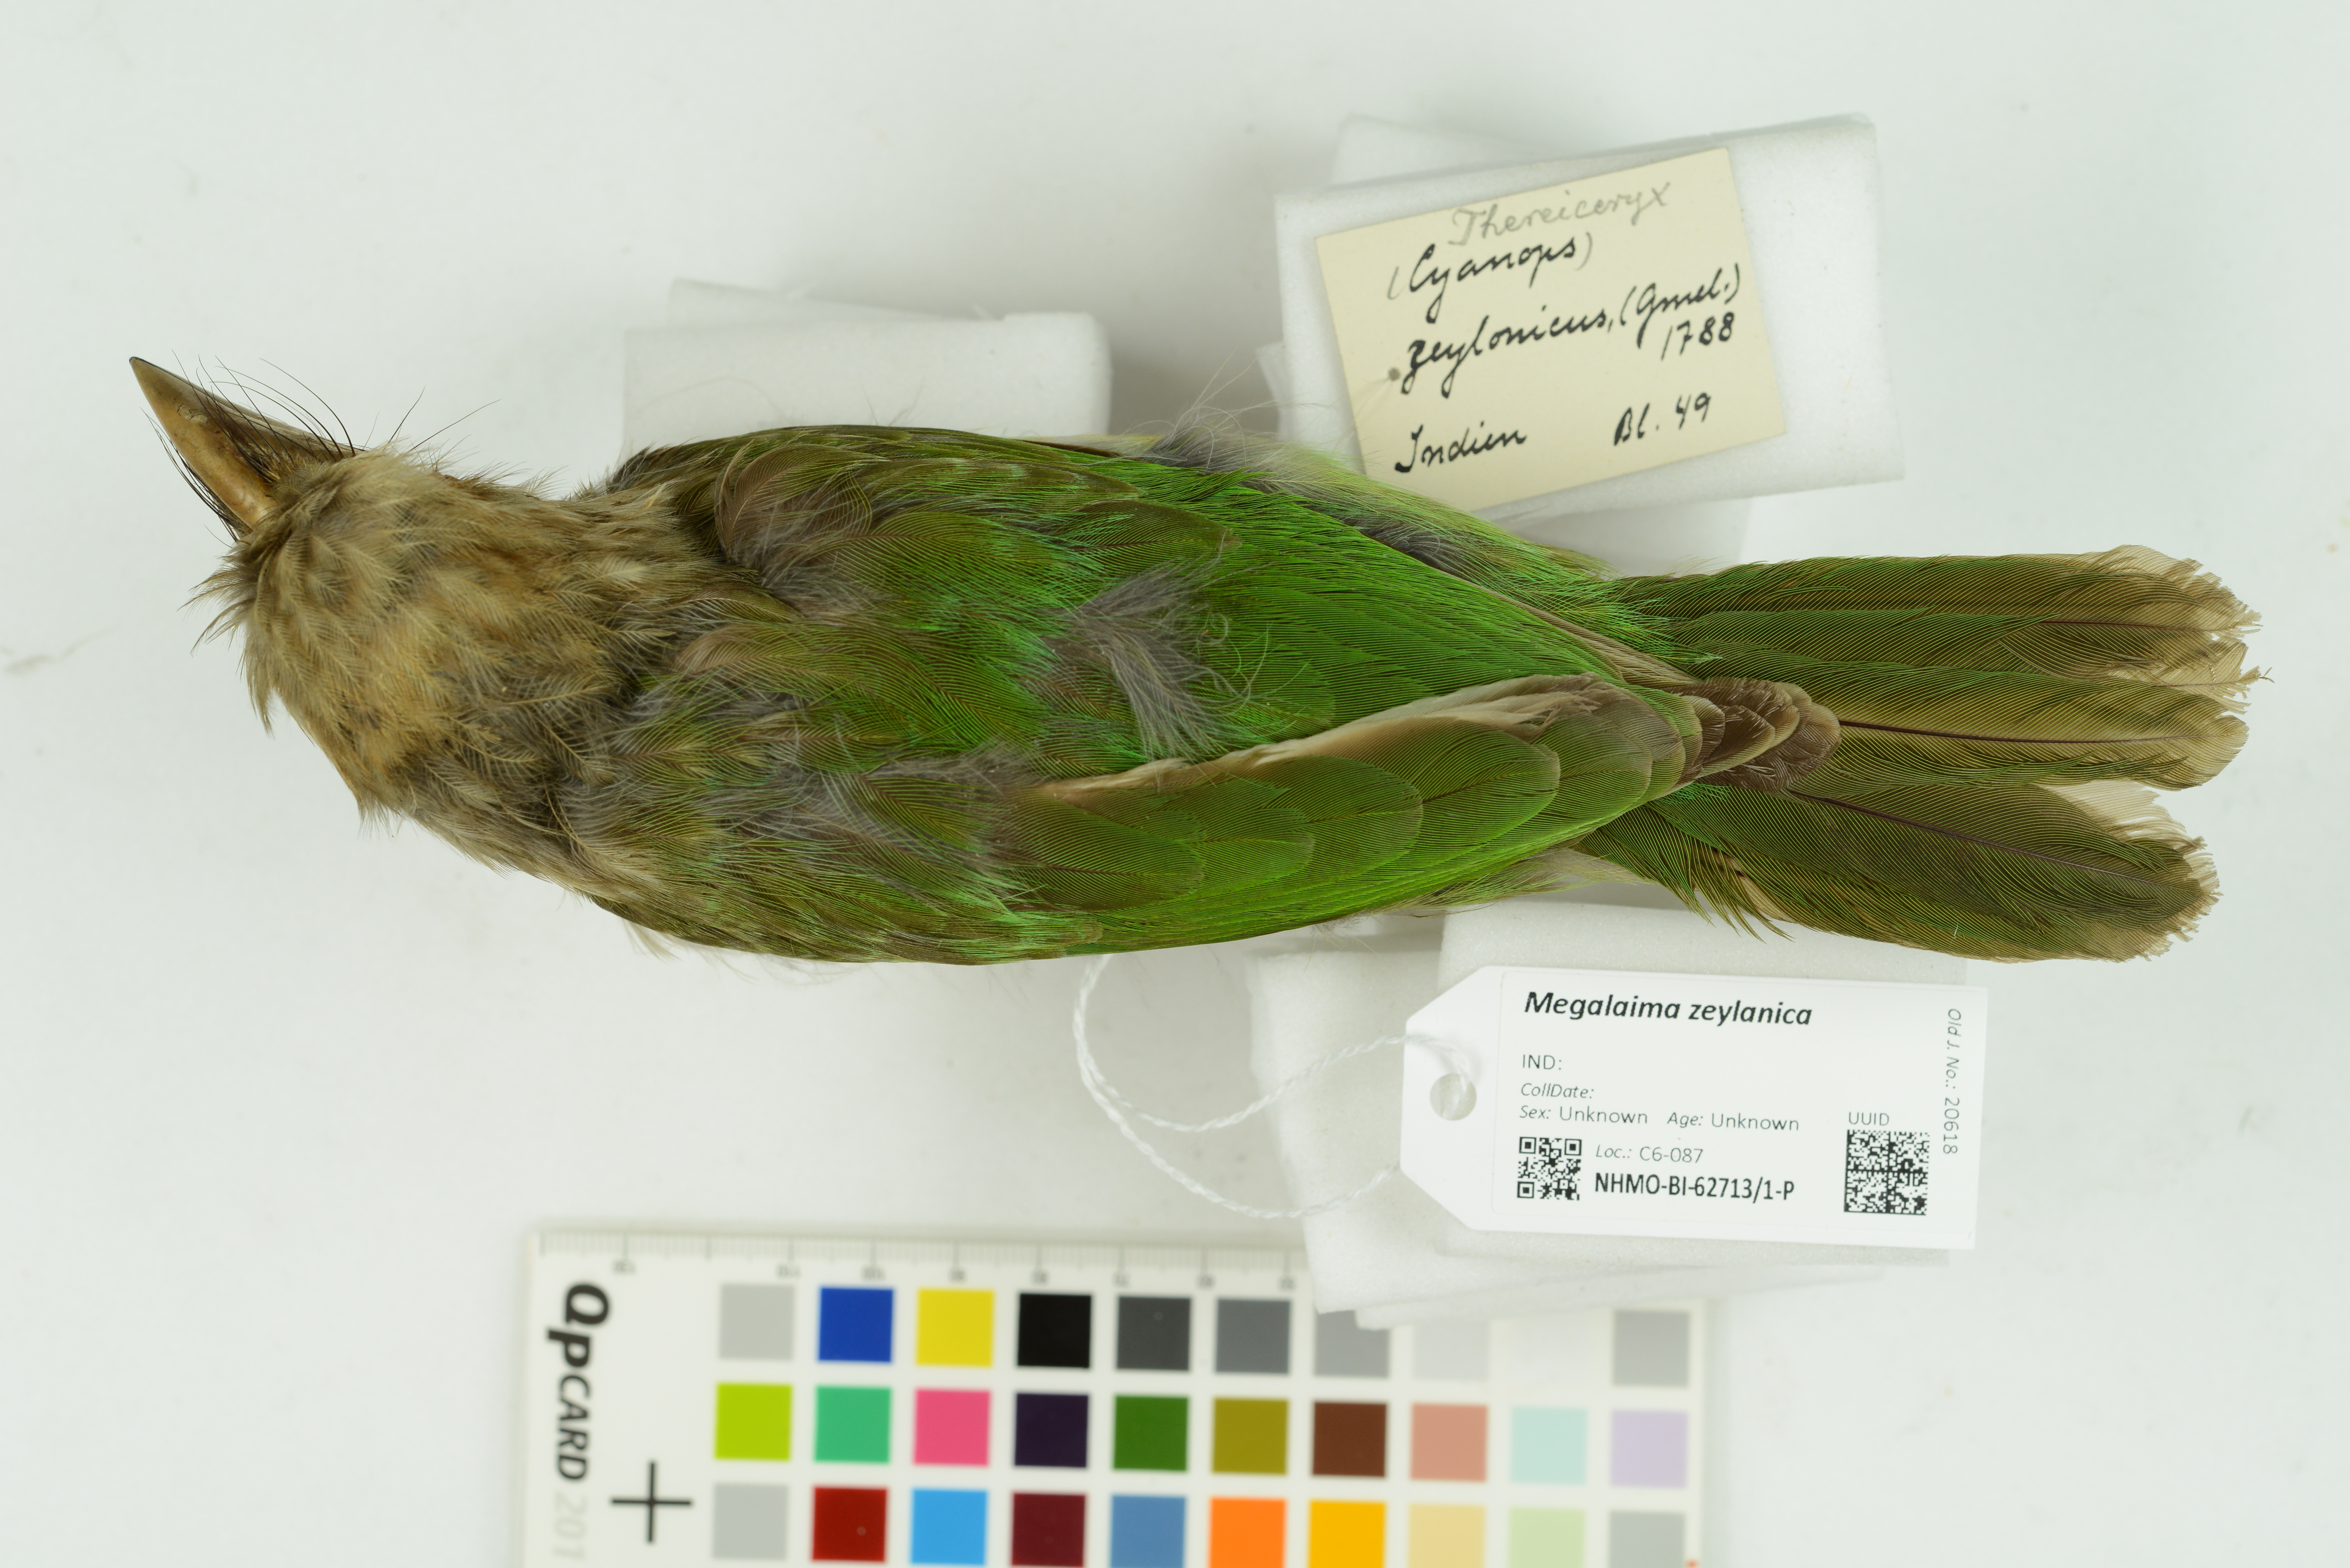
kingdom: Animalia
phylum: Chordata
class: Aves
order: Piciformes
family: Megalaimidae
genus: Psilopogon
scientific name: Psilopogon zeylanicus
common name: Brown-headed barbet
